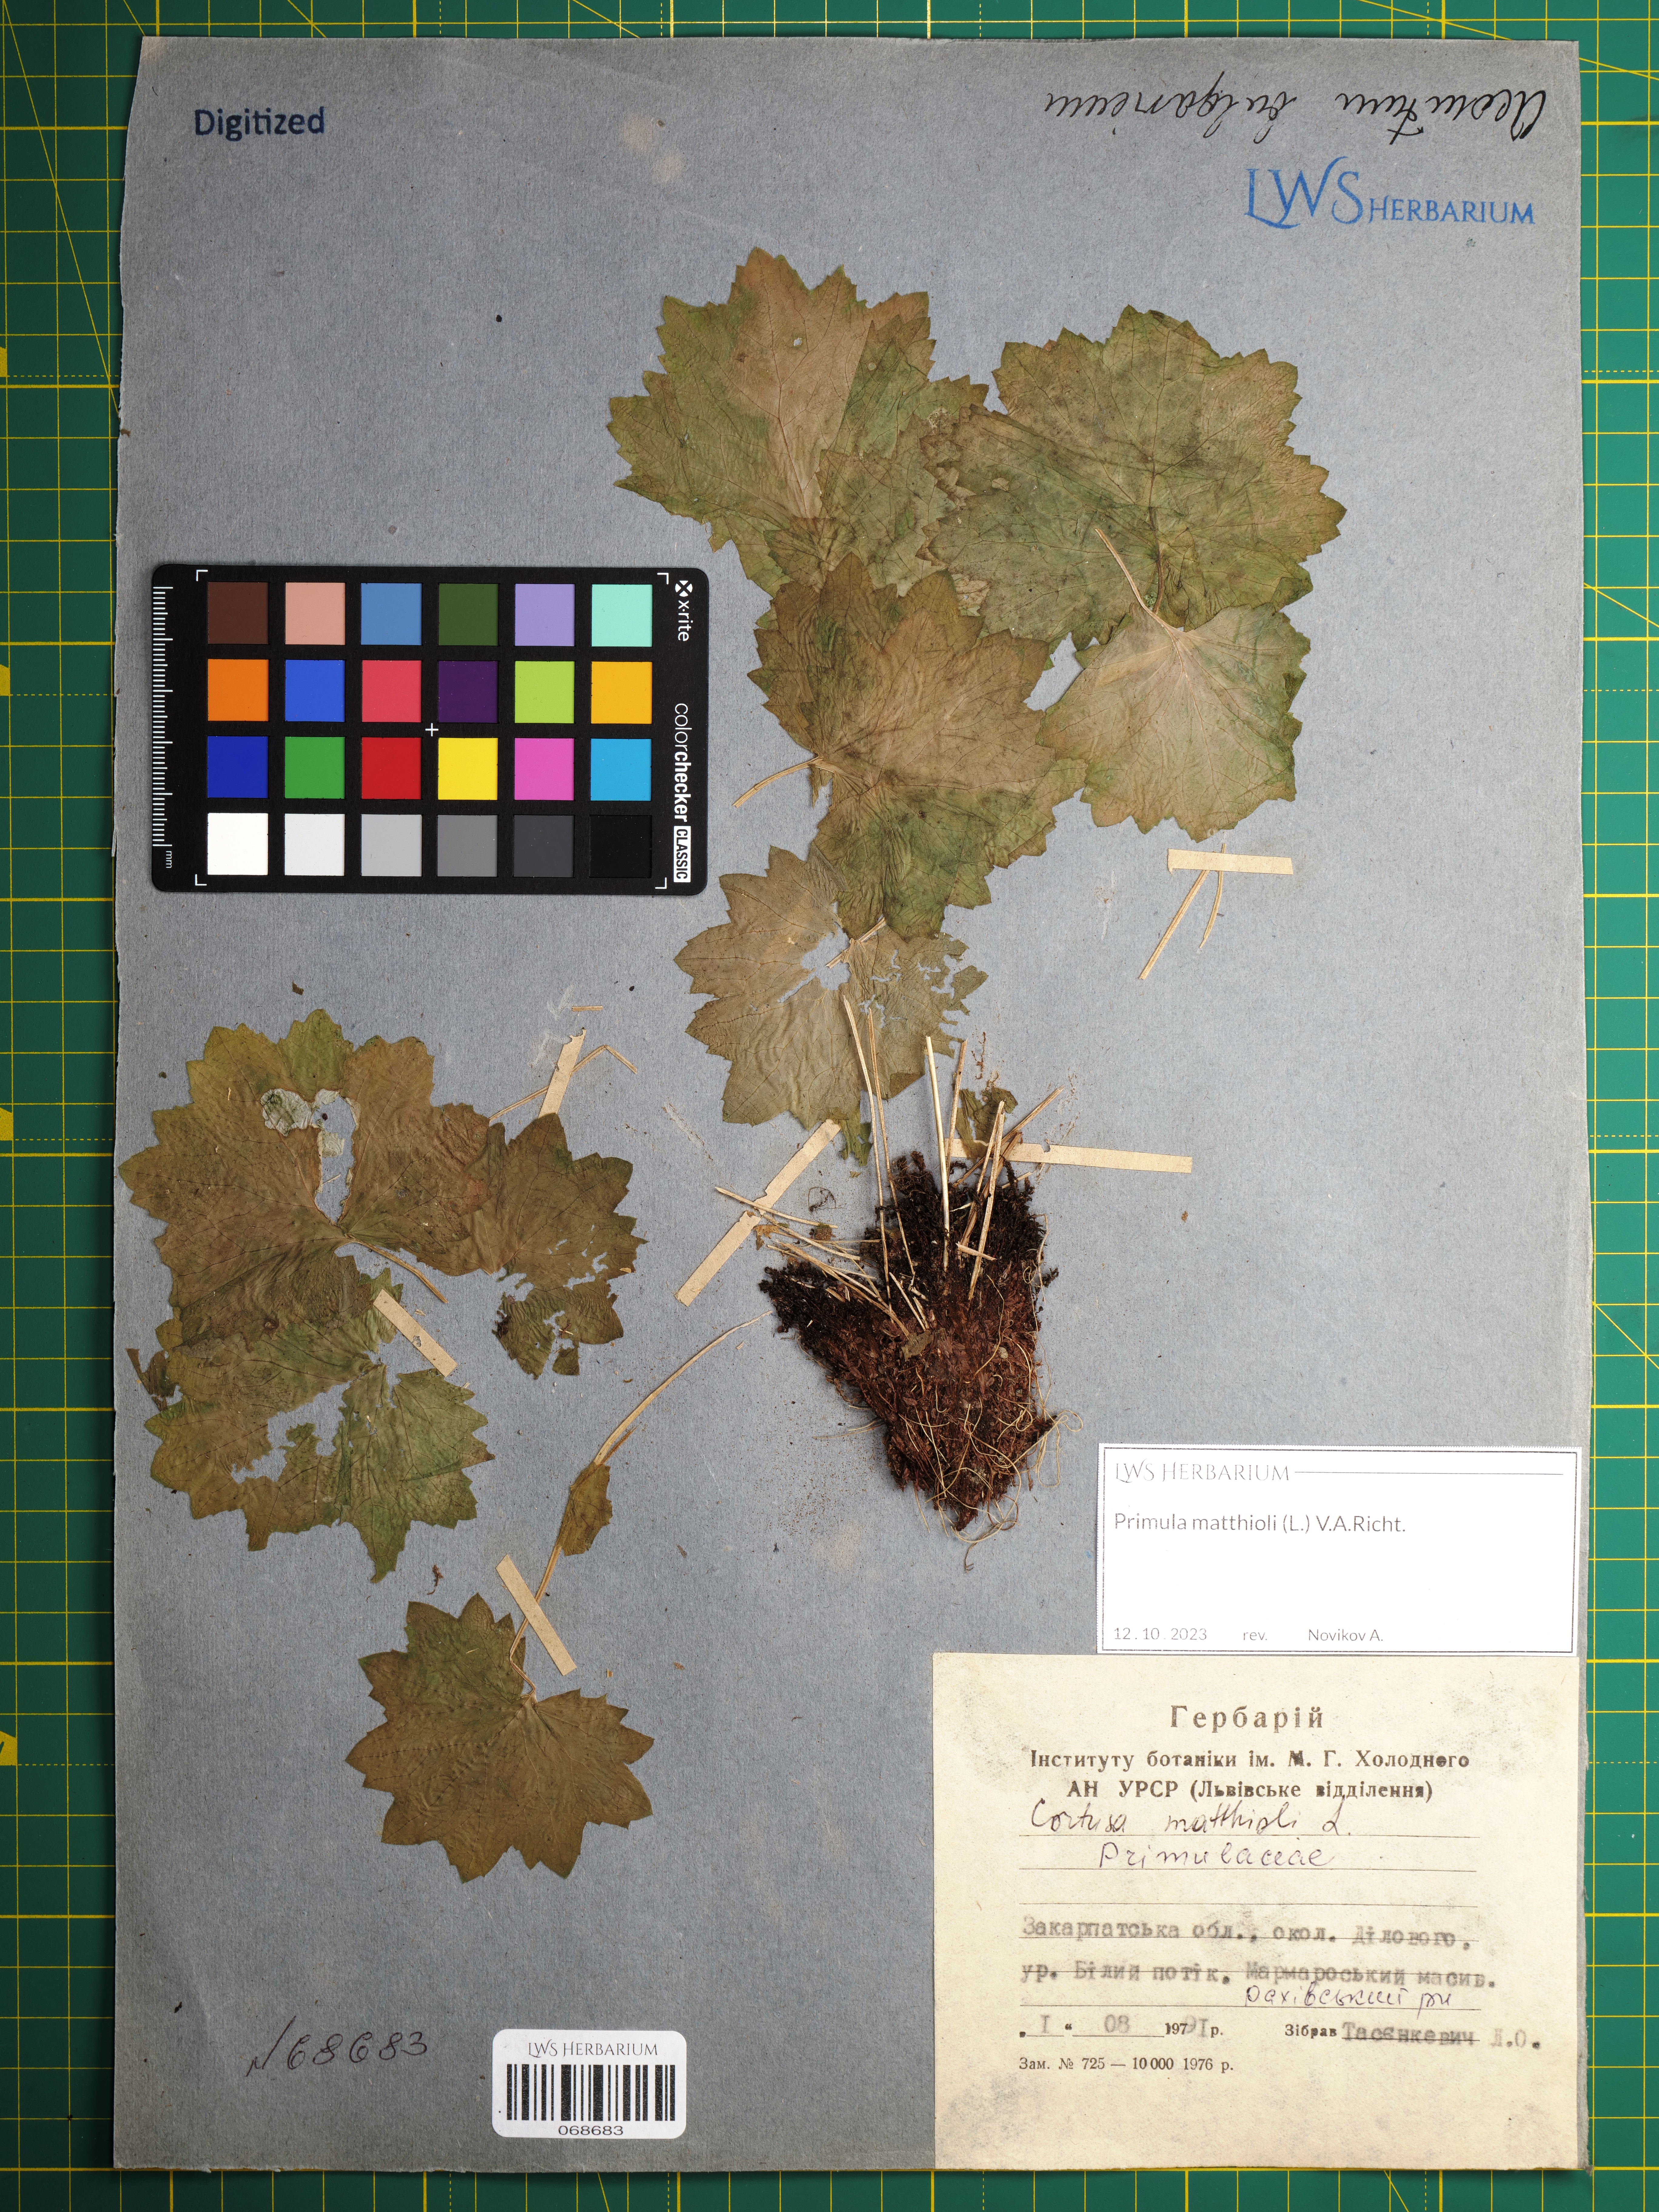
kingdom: Plantae
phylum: Tracheophyta
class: Magnoliopsida
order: Ericales
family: Primulaceae
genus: Primula
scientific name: Primula matthioli
